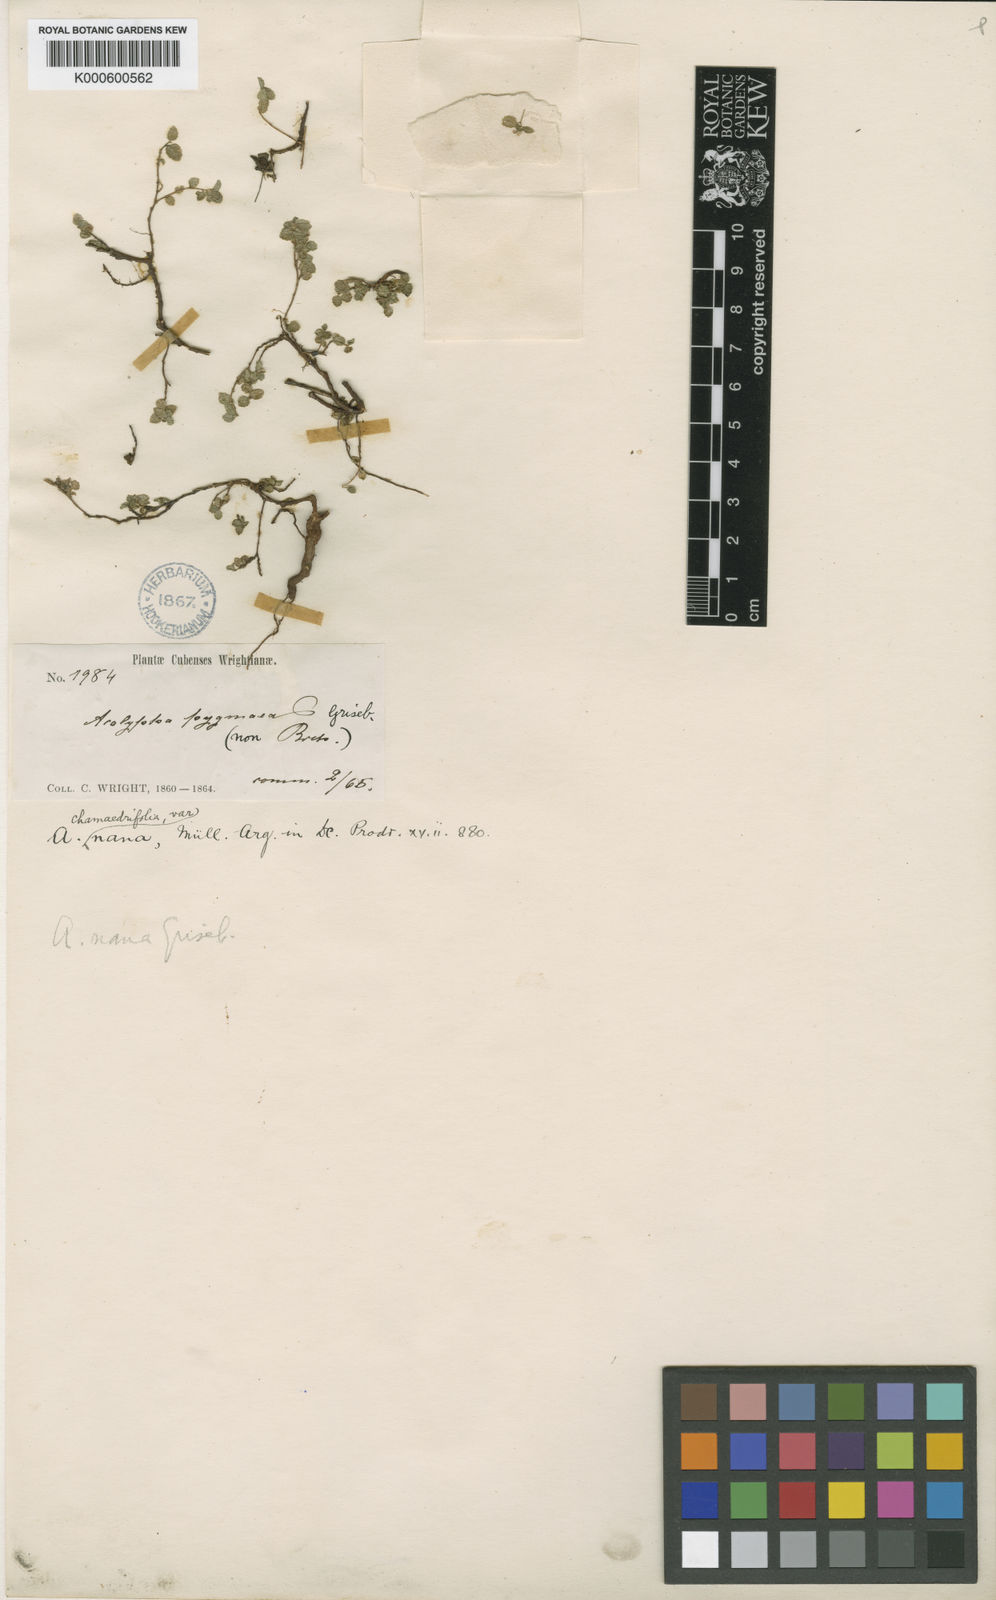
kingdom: Plantae
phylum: Tracheophyta
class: Magnoliopsida
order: Malpighiales
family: Euphorbiaceae
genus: Acalypha
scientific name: Acalypha
